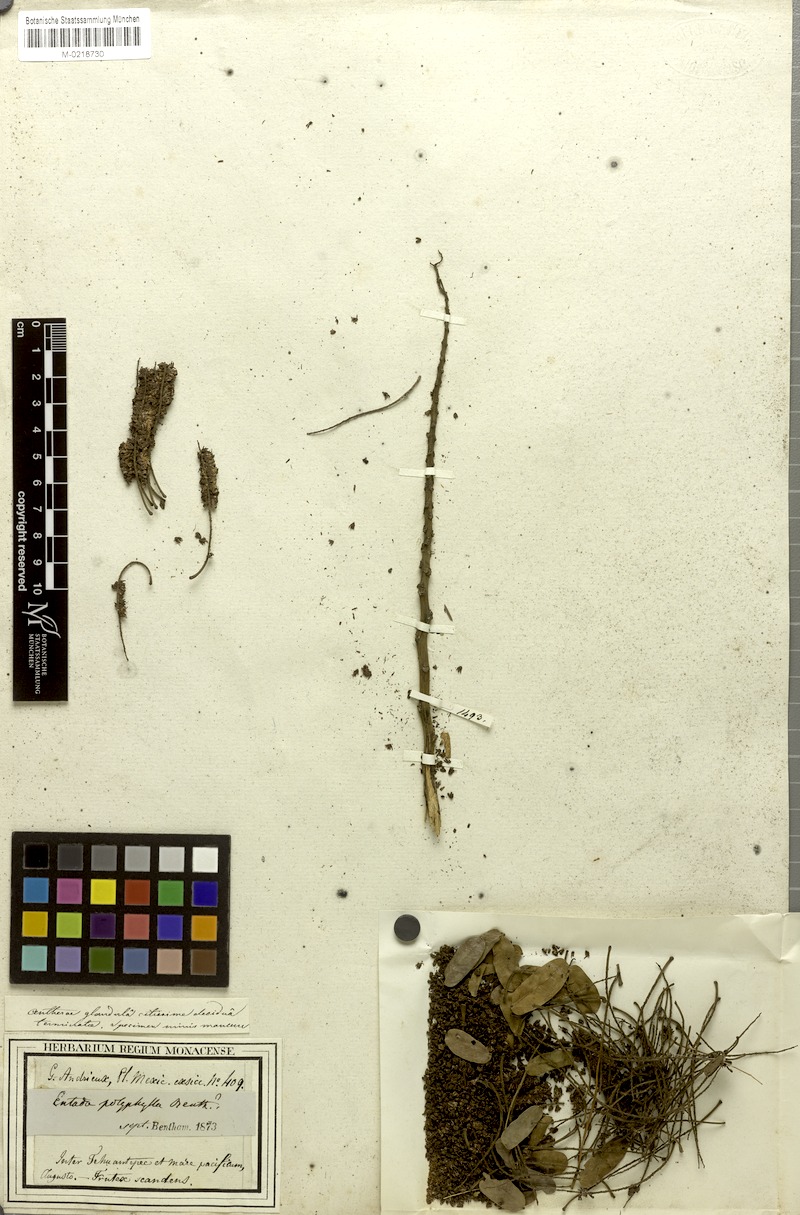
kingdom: Plantae
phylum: Tracheophyta
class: Magnoliopsida
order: Fabales
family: Fabaceae
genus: Entada
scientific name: Entada polyphylla
